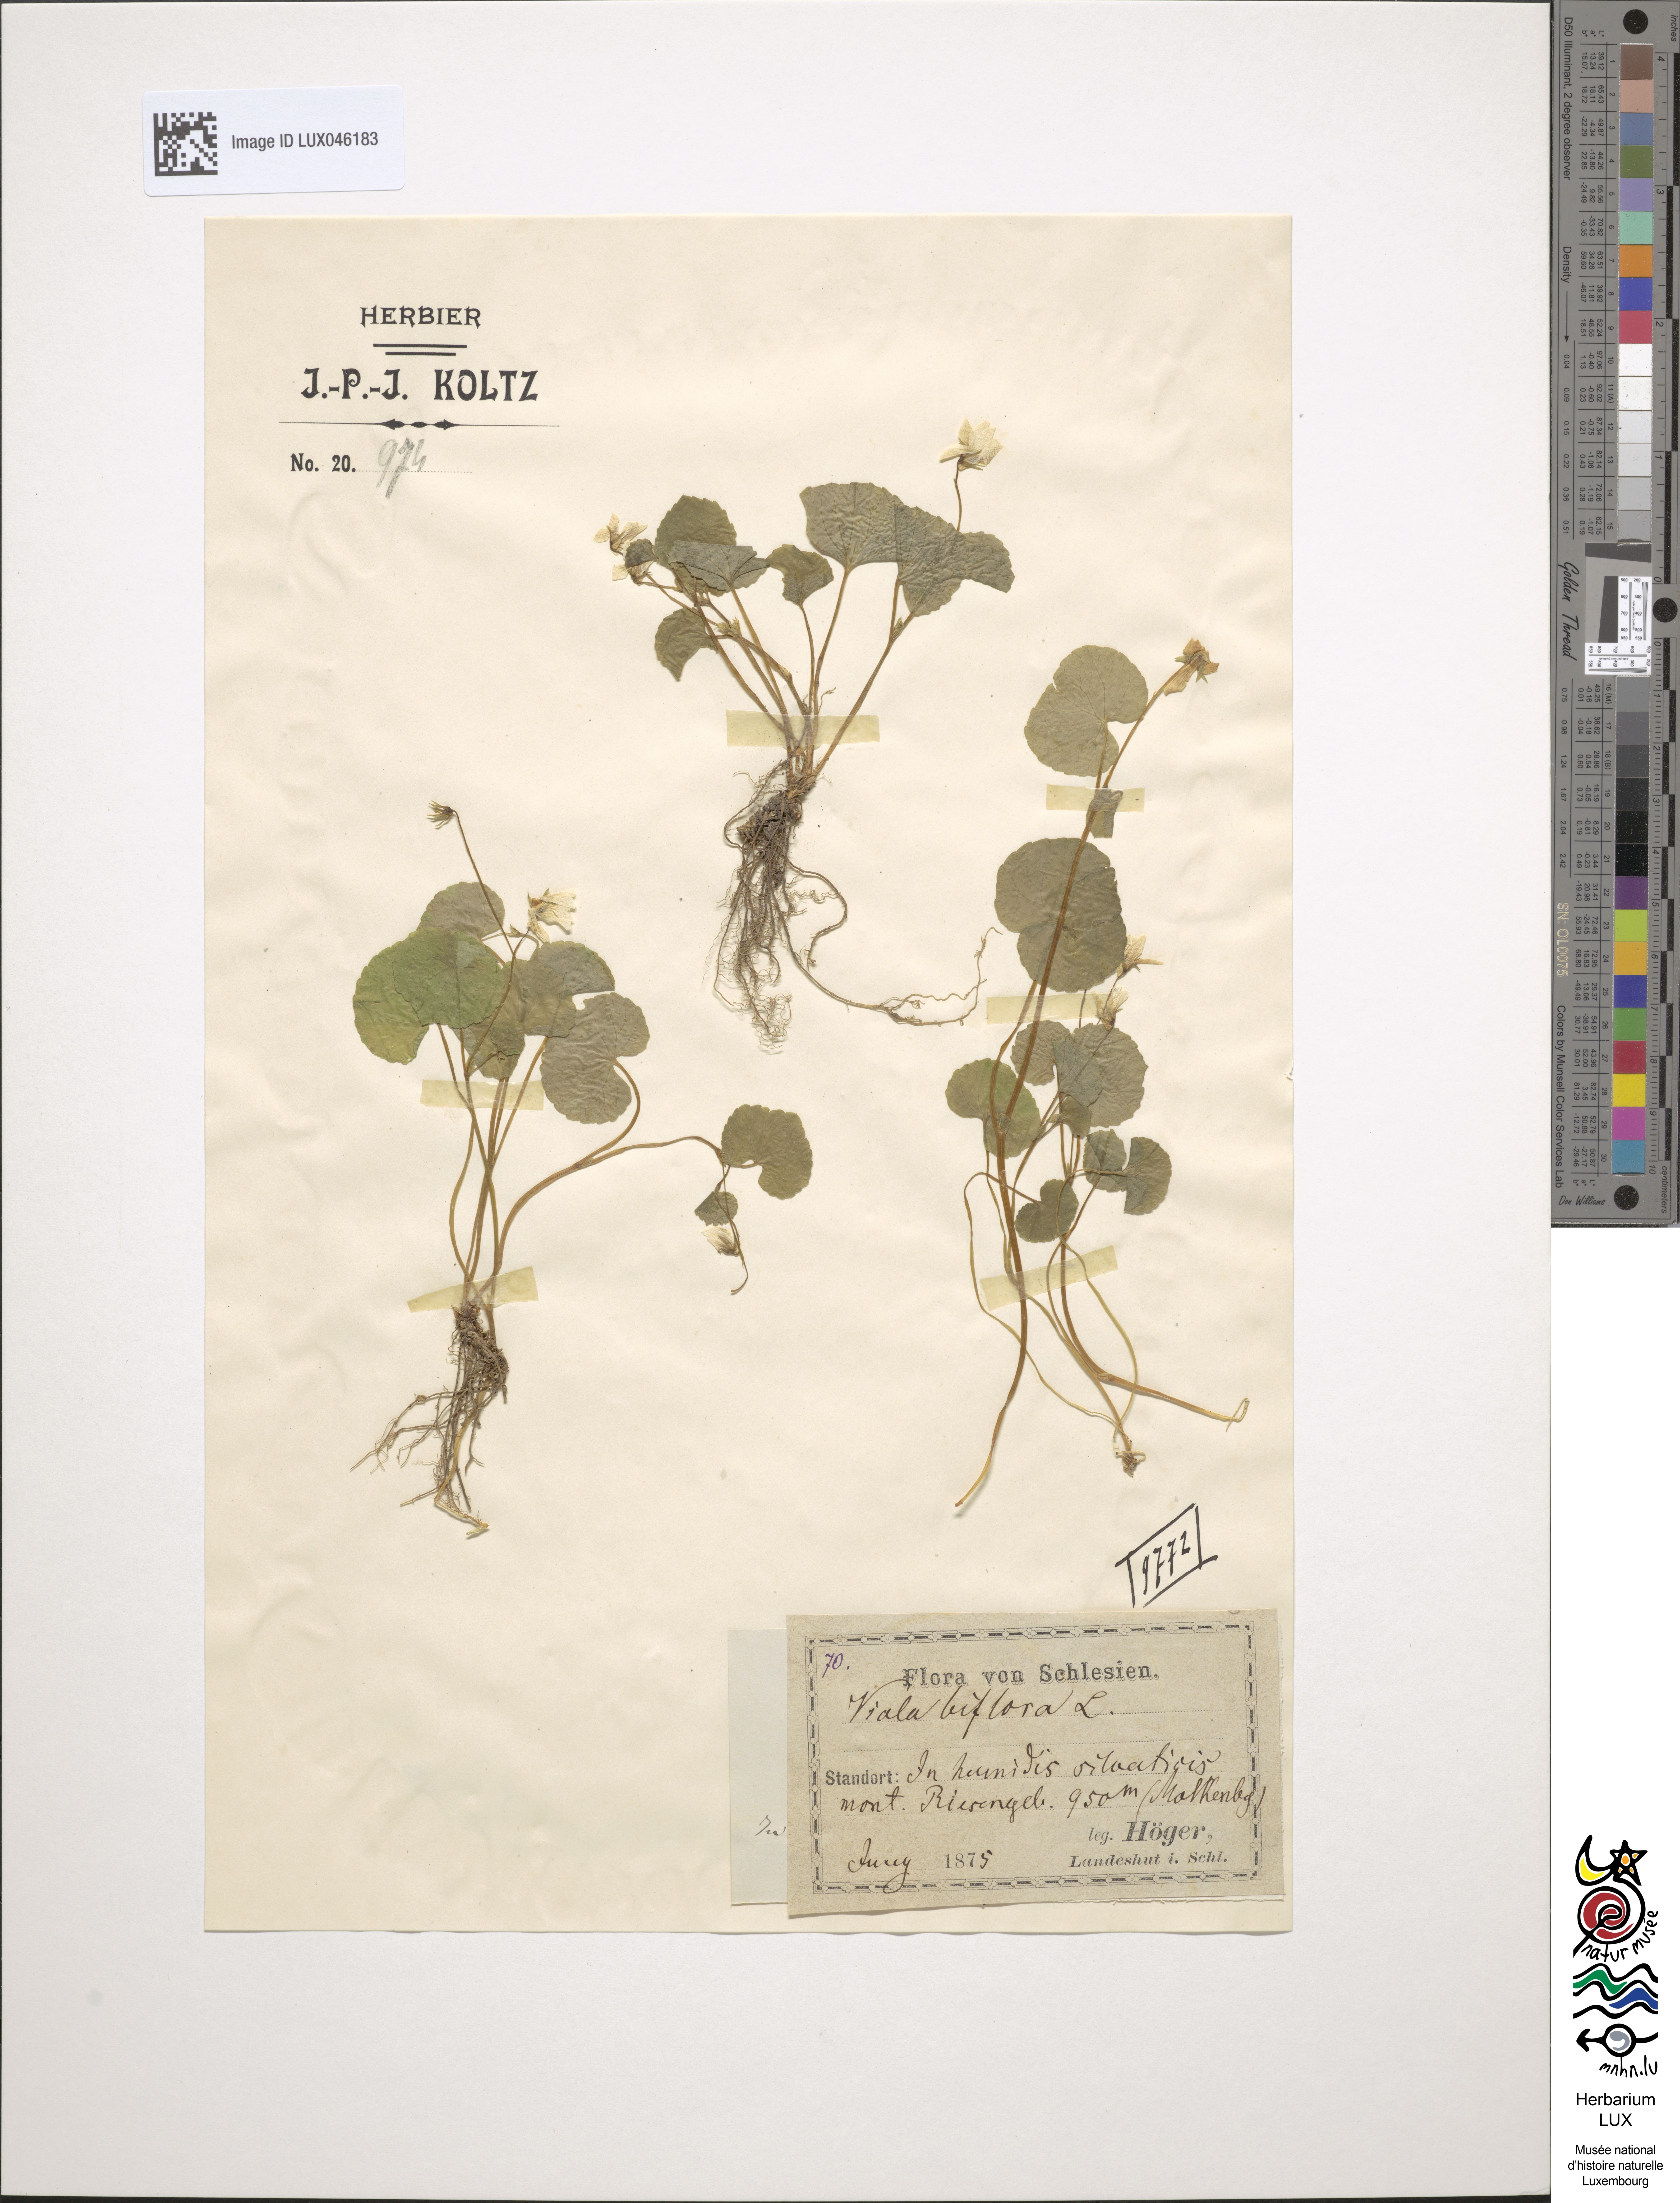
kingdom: Plantae
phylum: Tracheophyta
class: Magnoliopsida
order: Malpighiales
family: Violaceae
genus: Viola
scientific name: Viola biflora
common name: Alpine yellow violet
